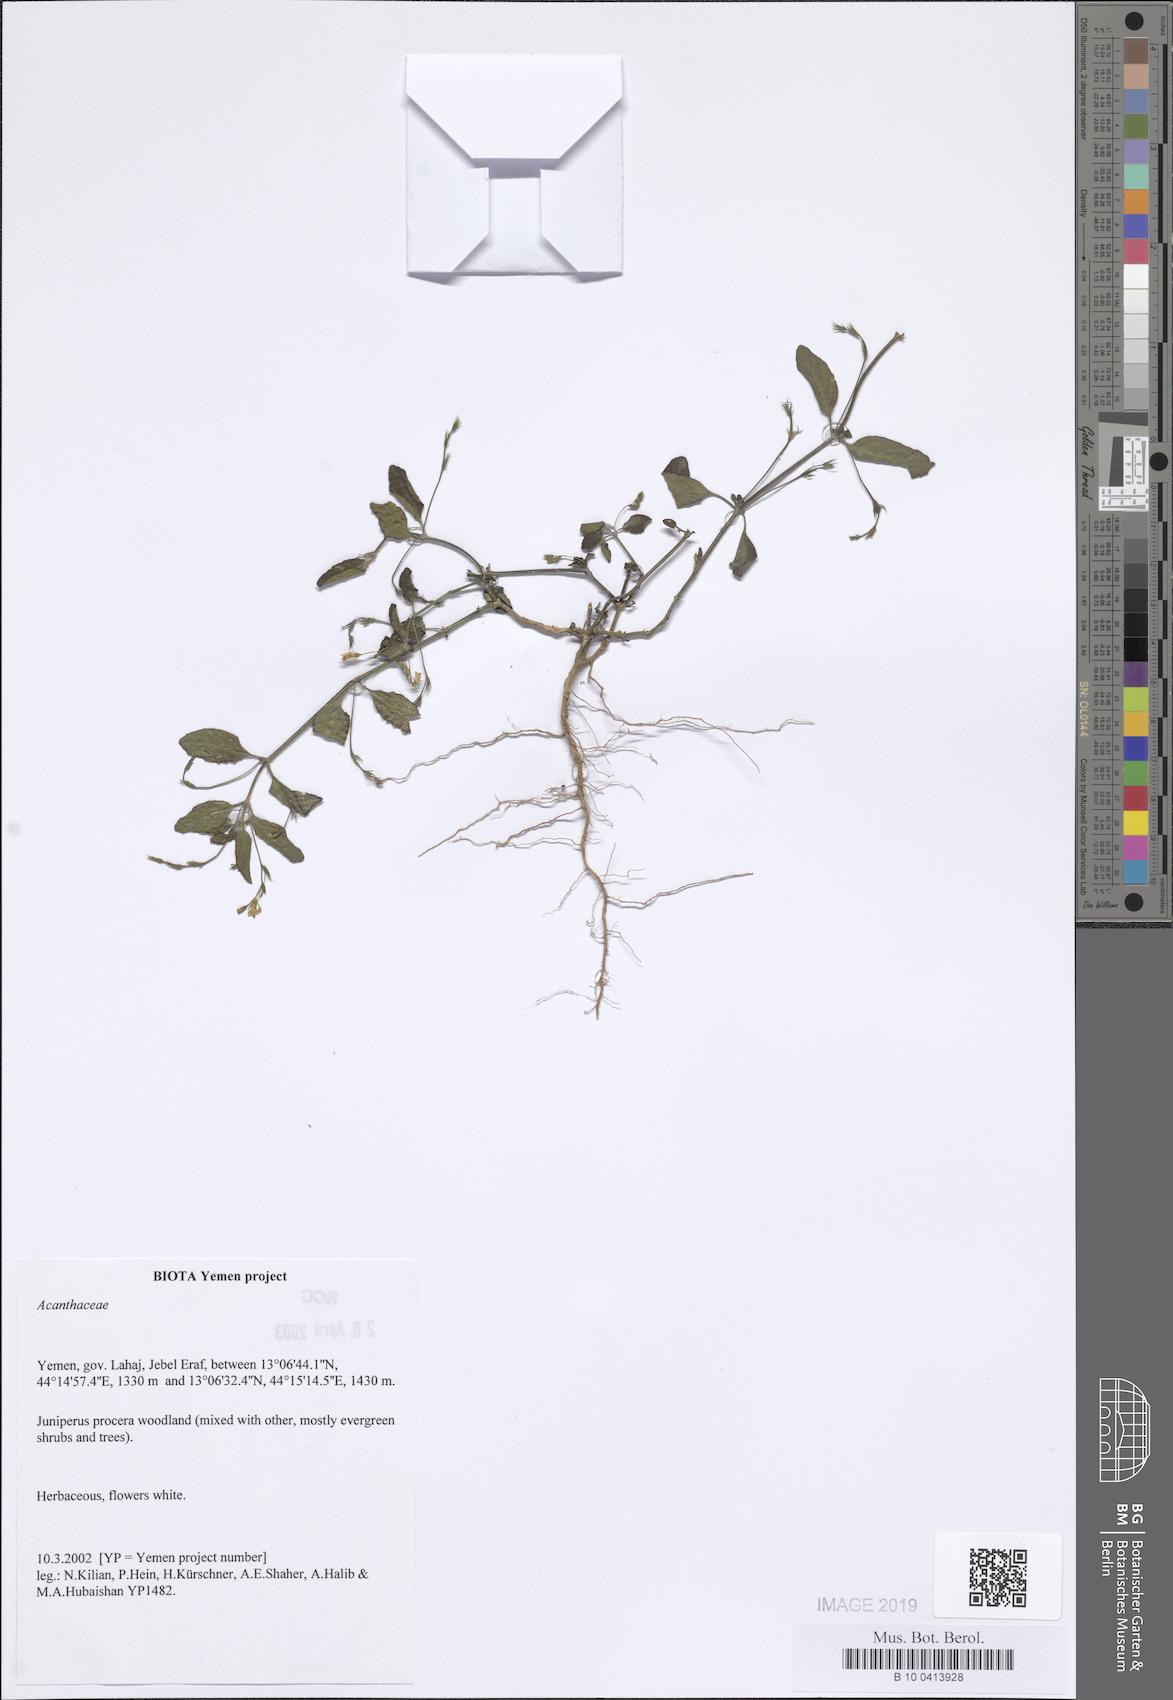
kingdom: Plantae
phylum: Tracheophyta
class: Magnoliopsida
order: Lamiales
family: Acanthaceae
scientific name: Acanthaceae
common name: Acanthaceae
